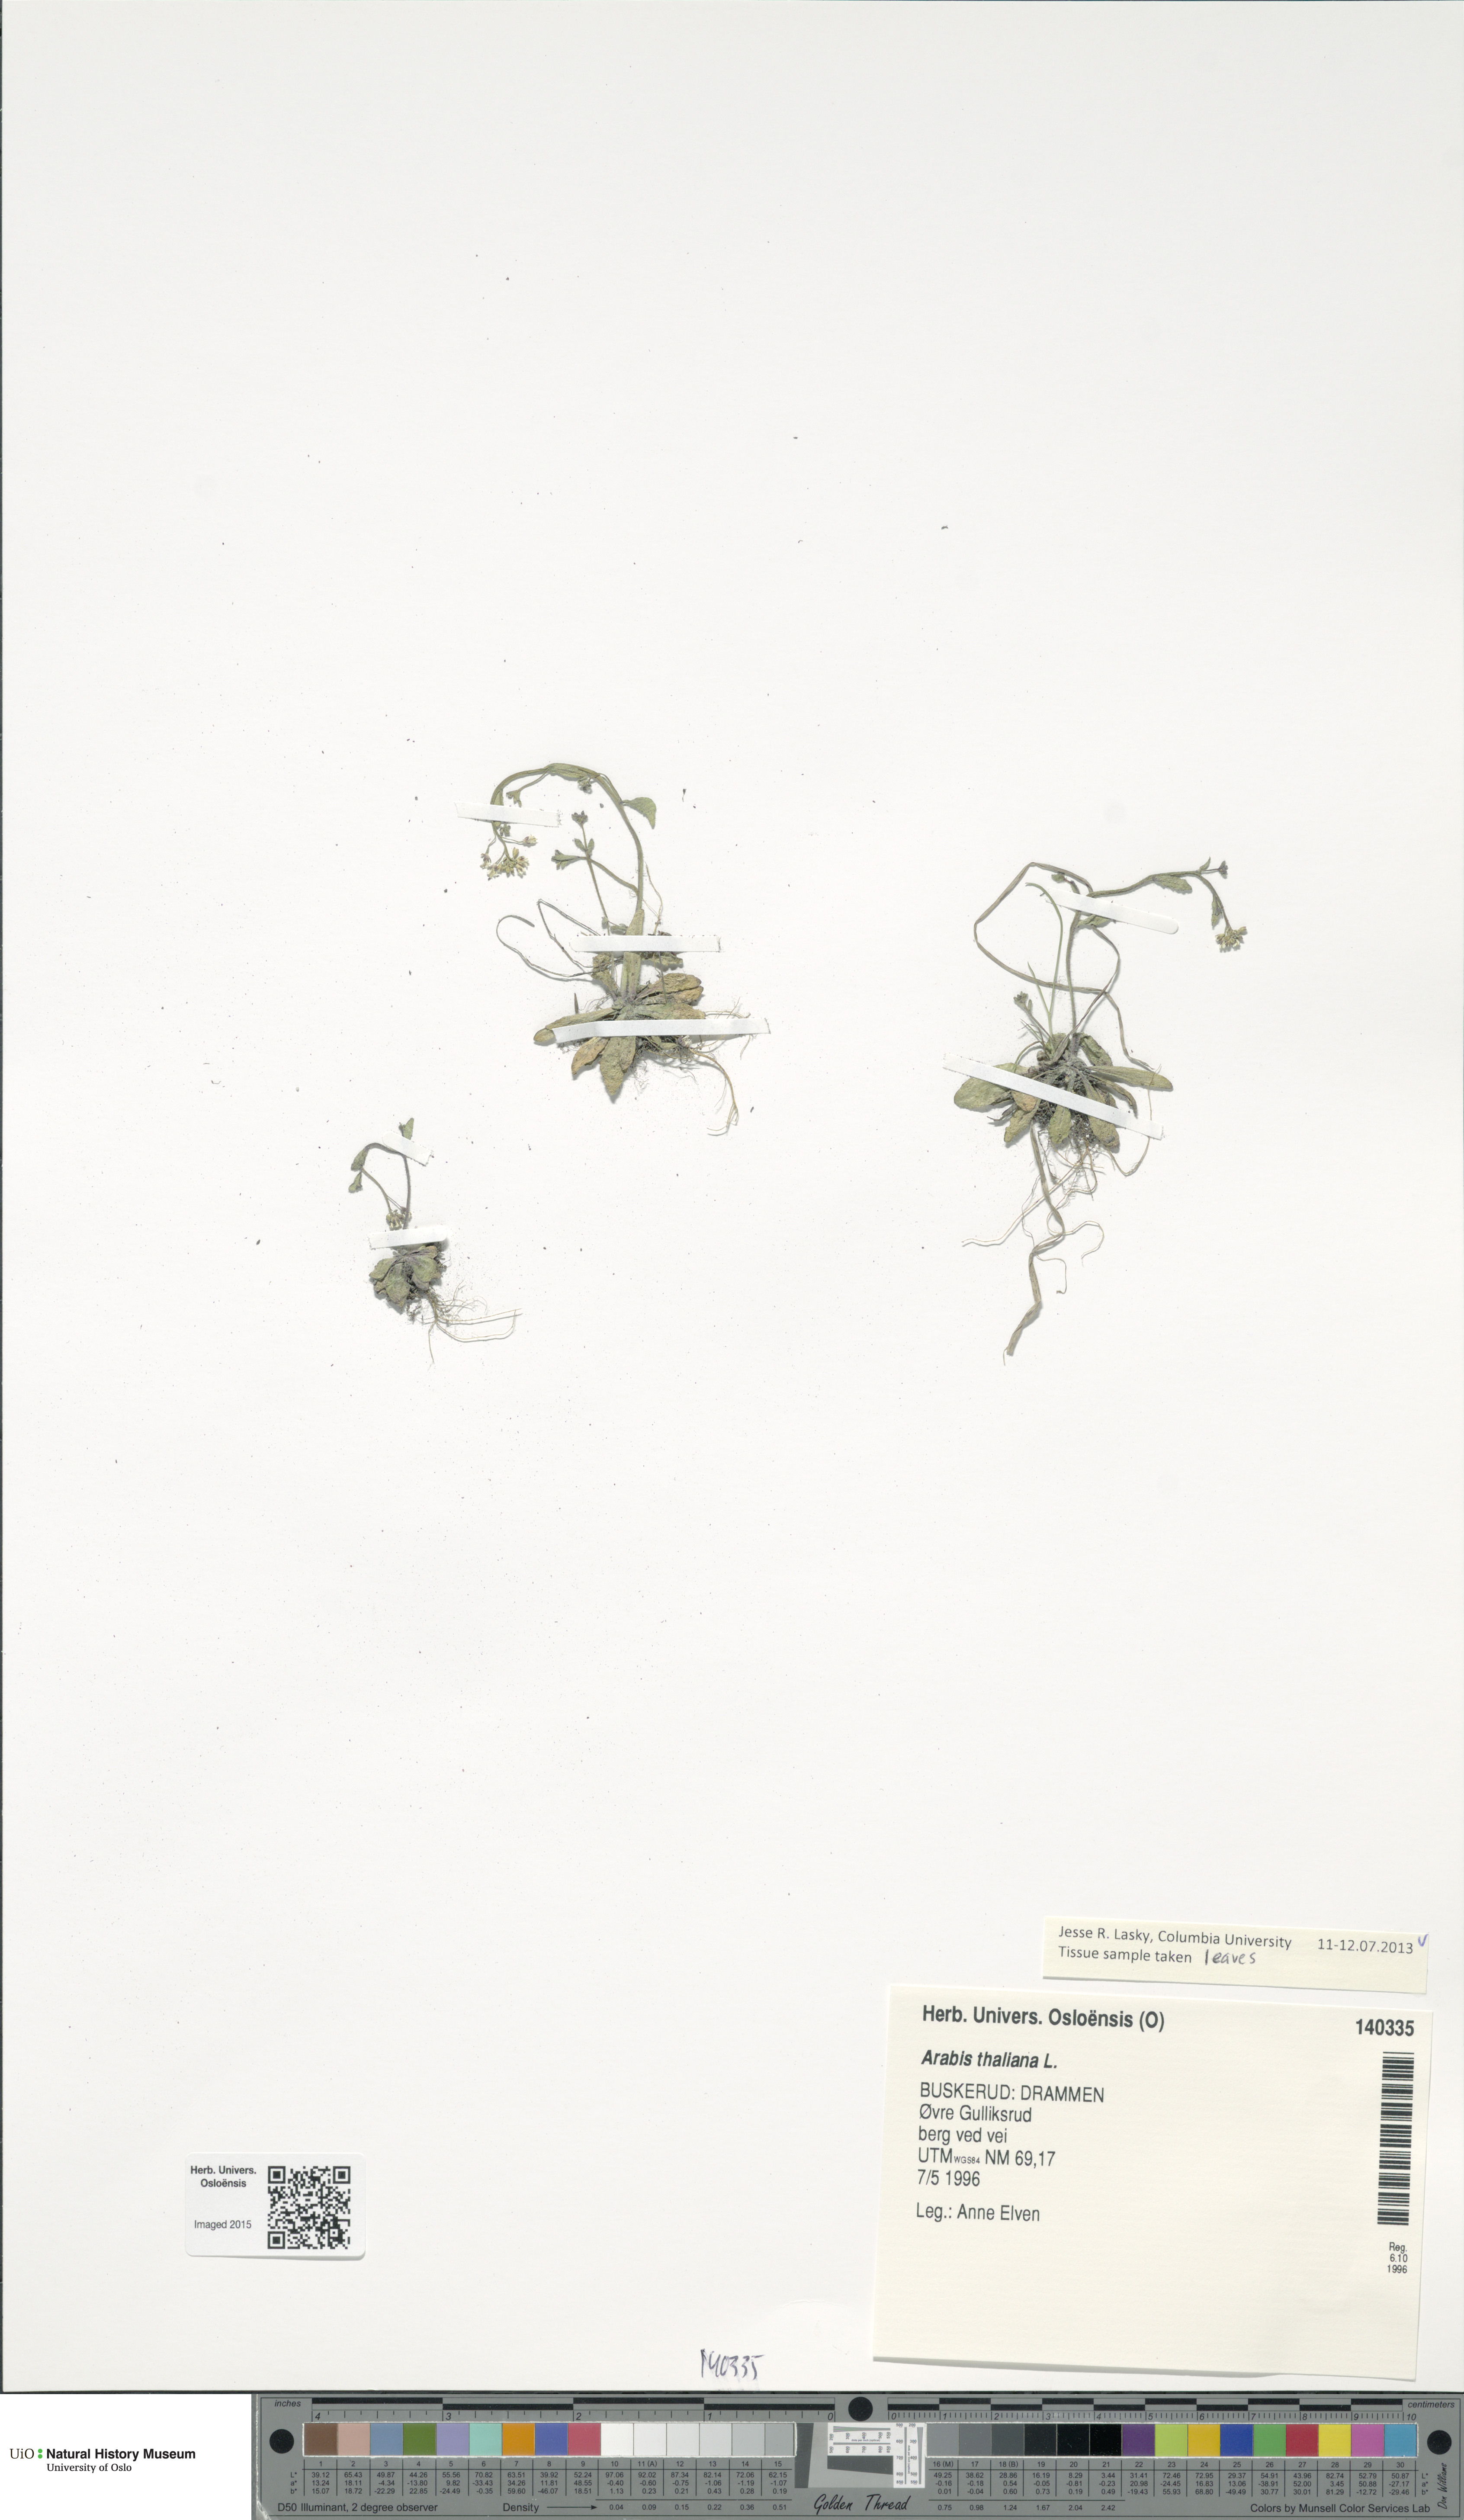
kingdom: Plantae
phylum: Tracheophyta
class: Magnoliopsida
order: Brassicales
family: Brassicaceae
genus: Arabidopsis
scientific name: Arabidopsis thaliana
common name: Thale cress
